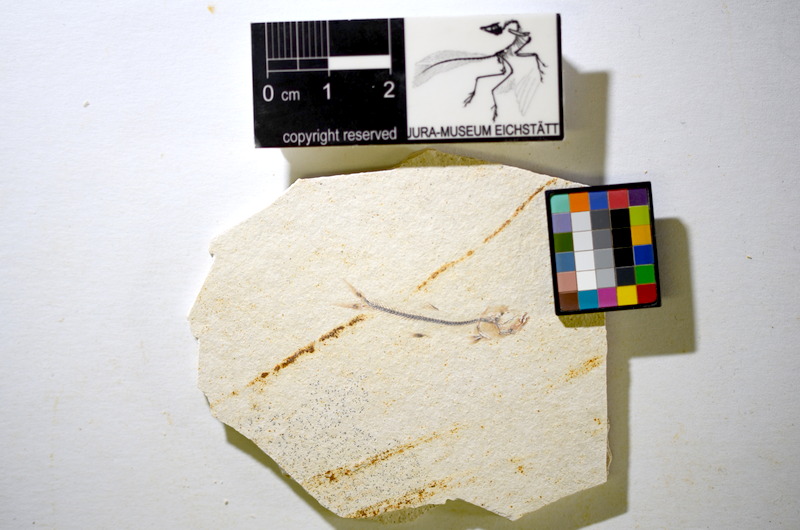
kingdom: Animalia
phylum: Chordata
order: Salmoniformes
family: Orthogonikleithridae
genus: Orthogonikleithrus
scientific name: Orthogonikleithrus hoelli
